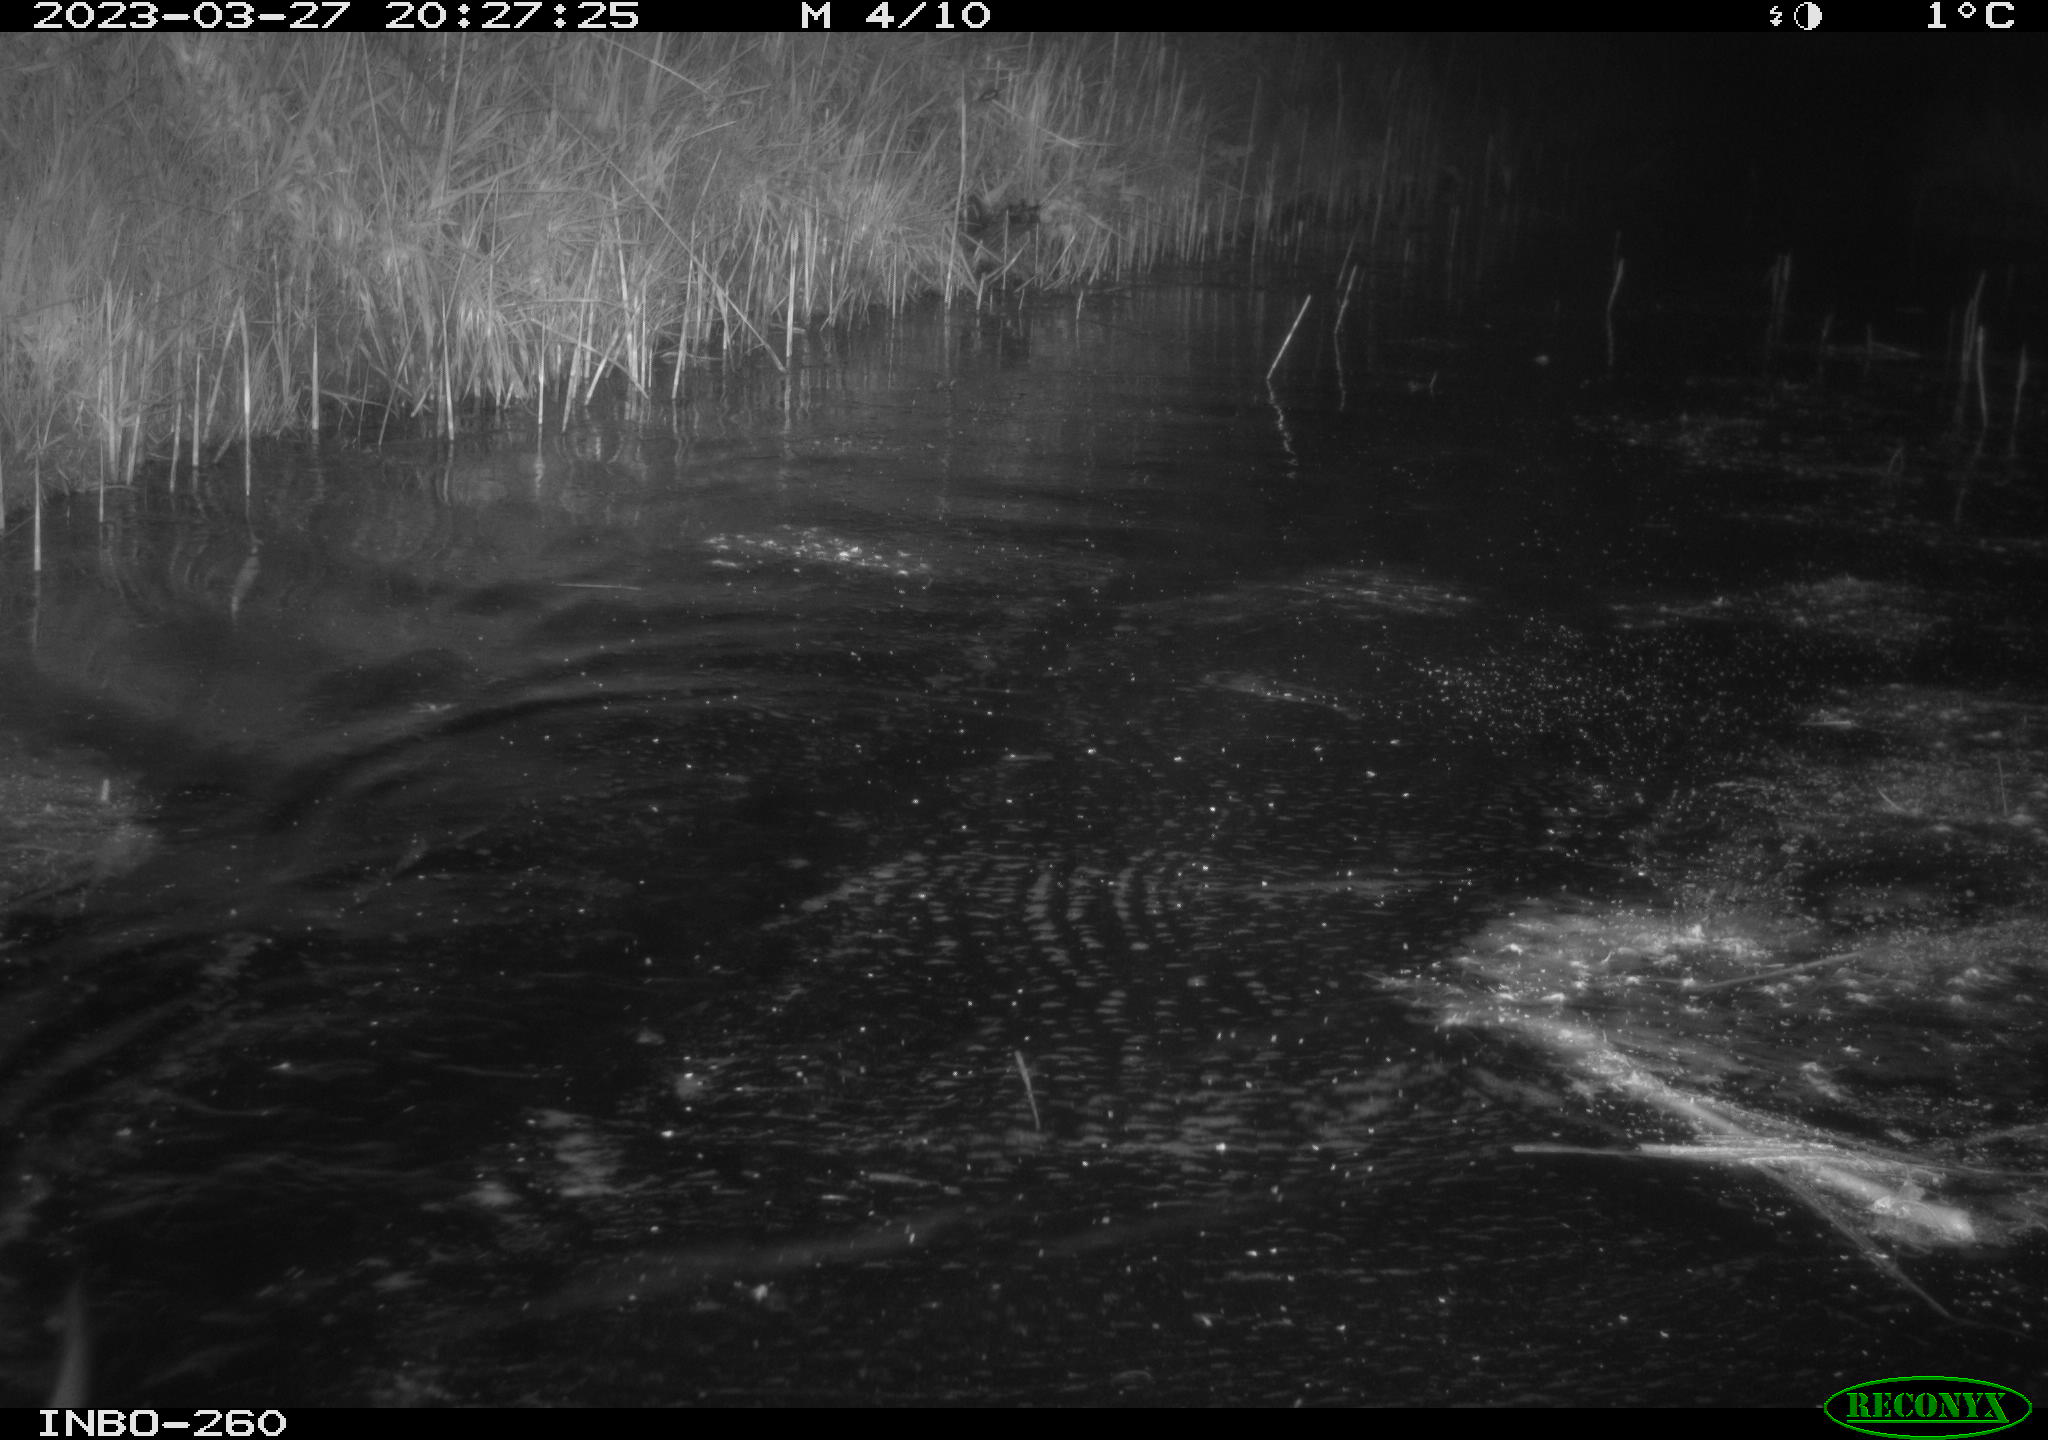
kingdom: Animalia
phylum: Chordata
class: Mammalia
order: Rodentia
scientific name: Rodentia
